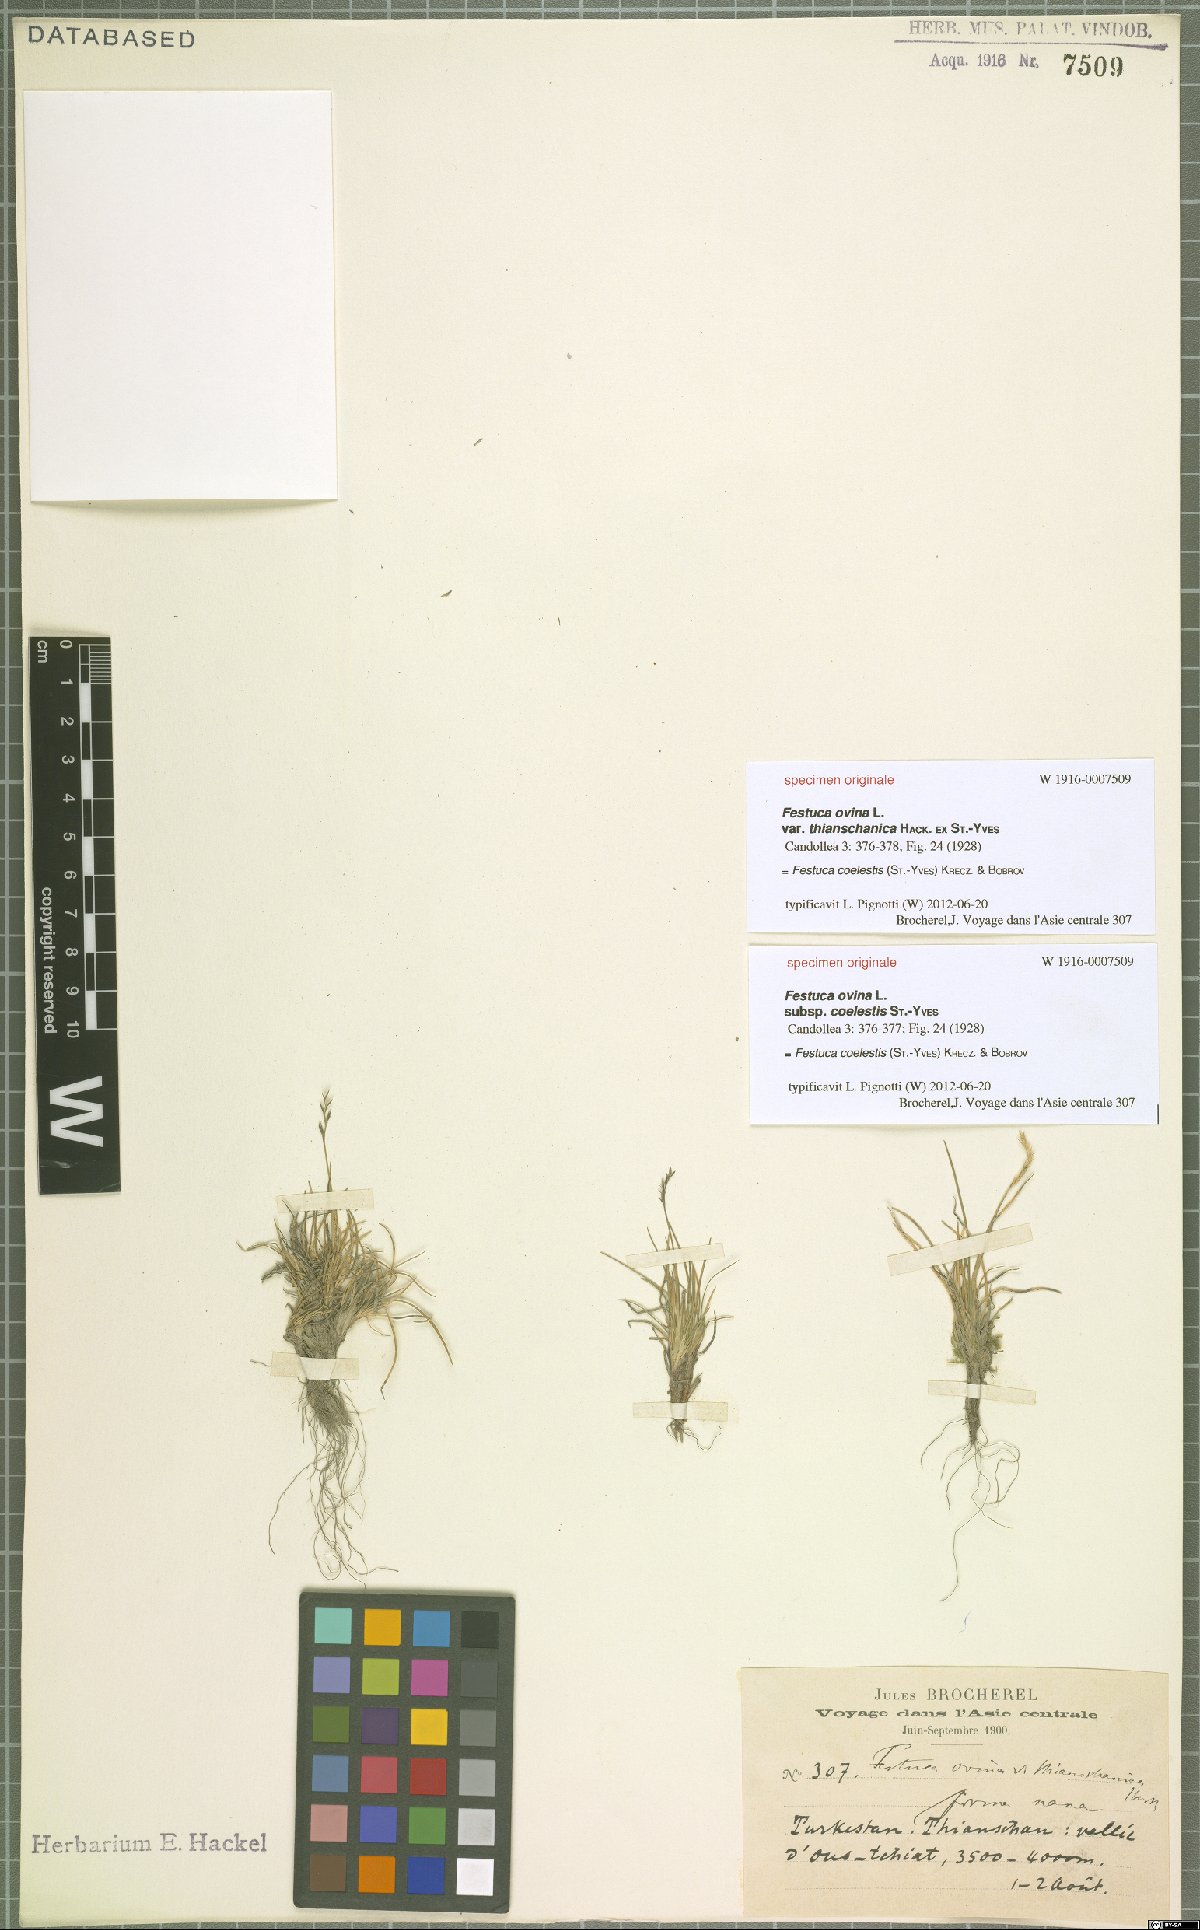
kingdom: Plantae
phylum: Tracheophyta
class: Liliopsida
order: Poales
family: Poaceae
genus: Festuca
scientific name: Festuca coelestis
